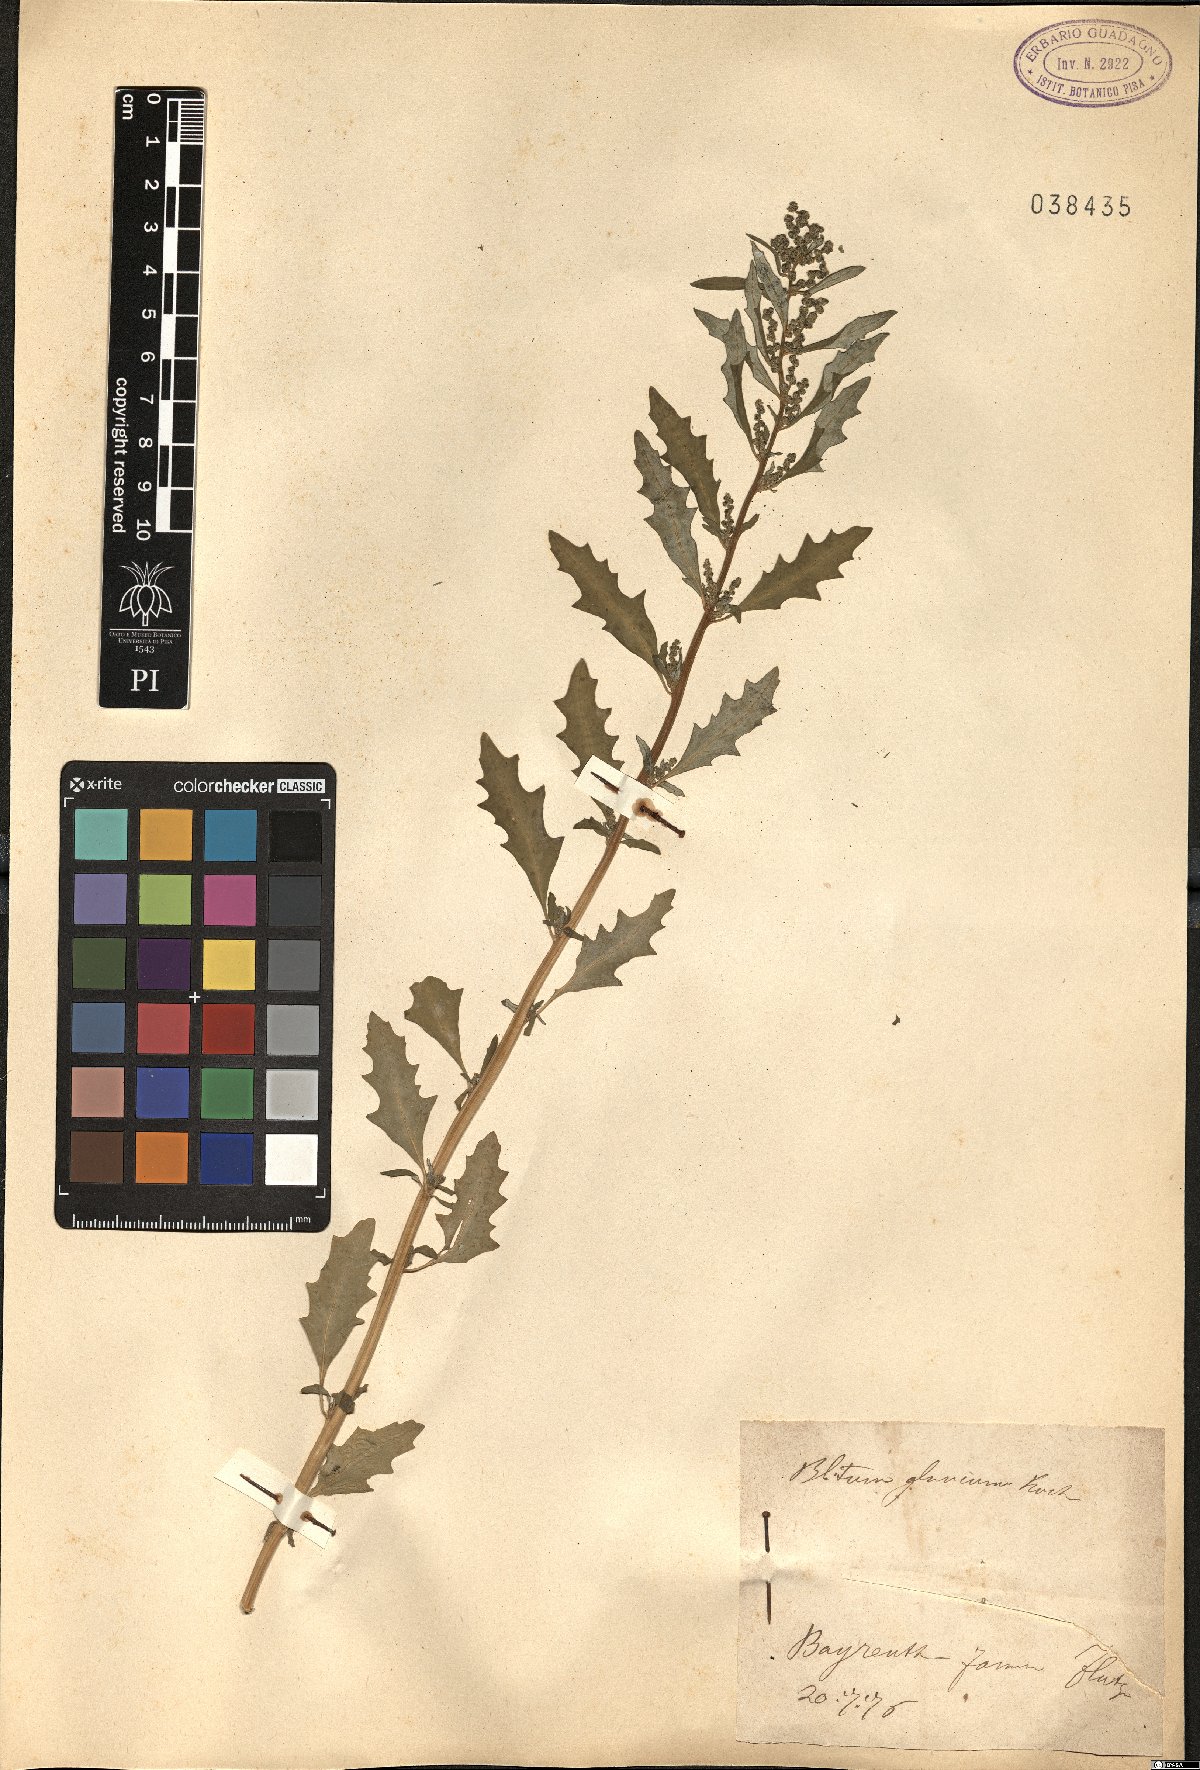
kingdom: Plantae
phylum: Tracheophyta
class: Magnoliopsida
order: Caryophyllales
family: Amaranthaceae
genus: Oxybasis
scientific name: Oxybasis glauca
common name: Glaucous goosefoot
